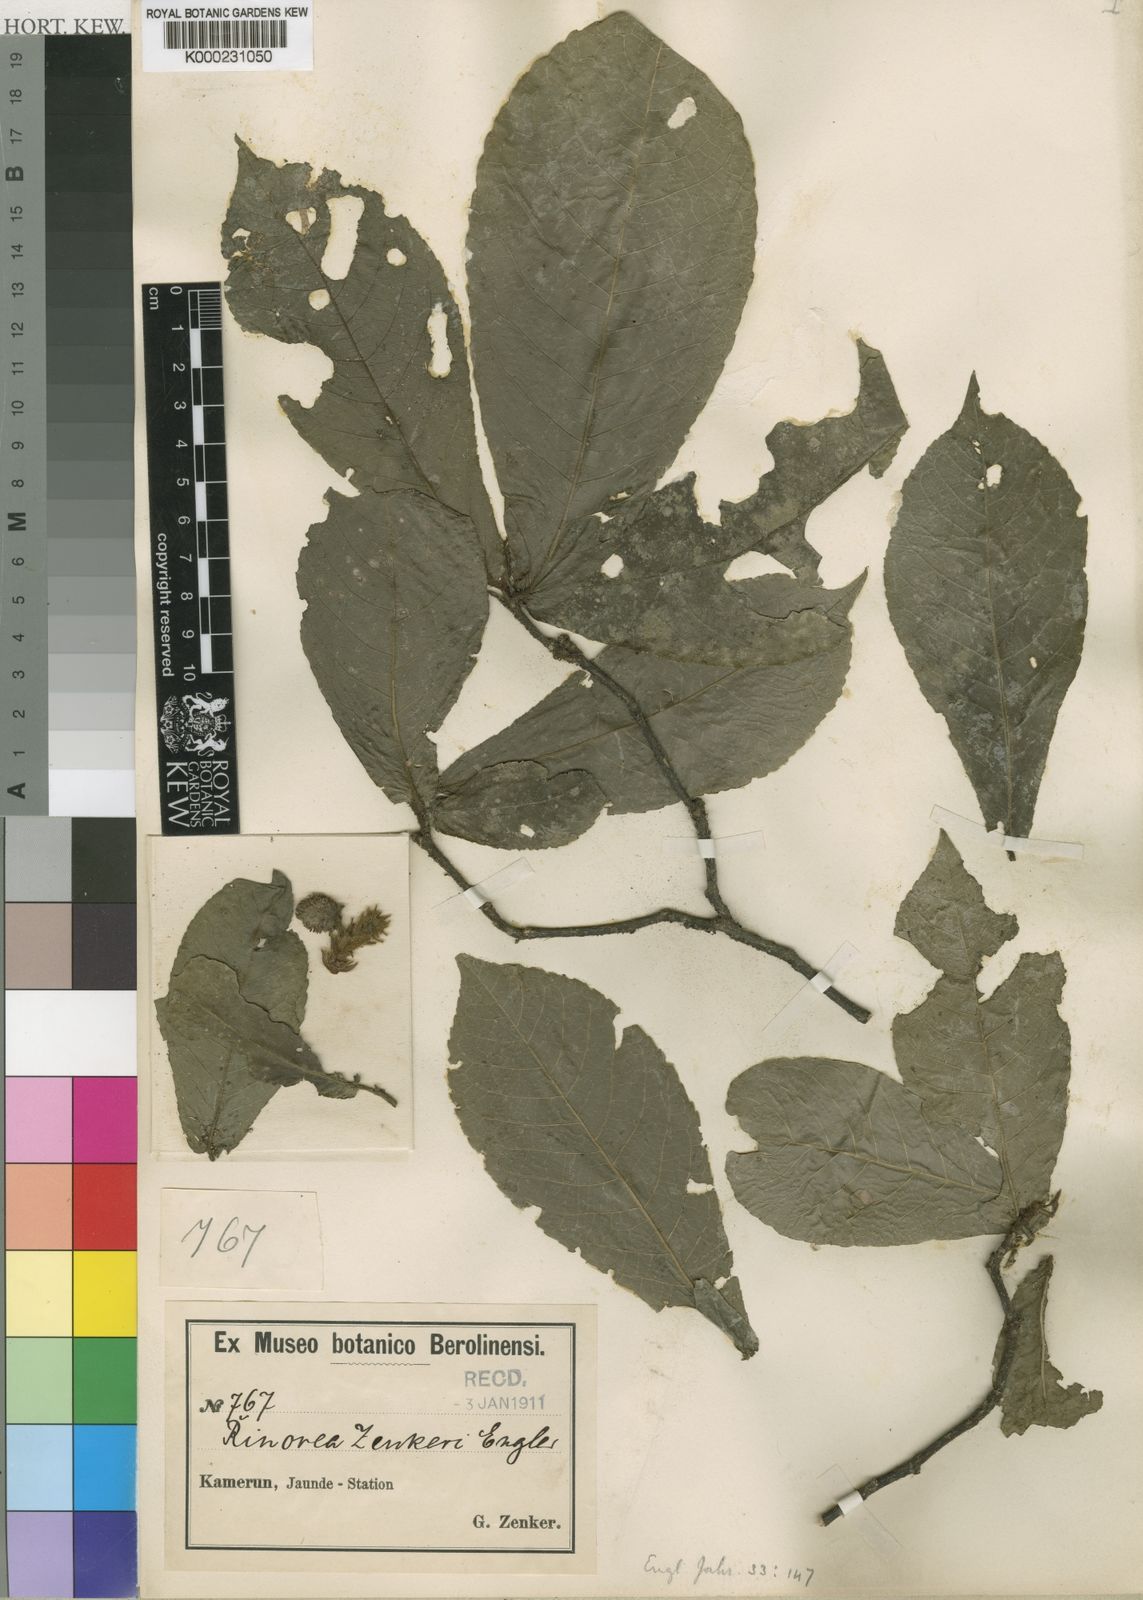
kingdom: Plantae
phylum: Tracheophyta
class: Magnoliopsida
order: Malpighiales
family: Violaceae
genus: Rinorea
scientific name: Rinorea zenkeri
